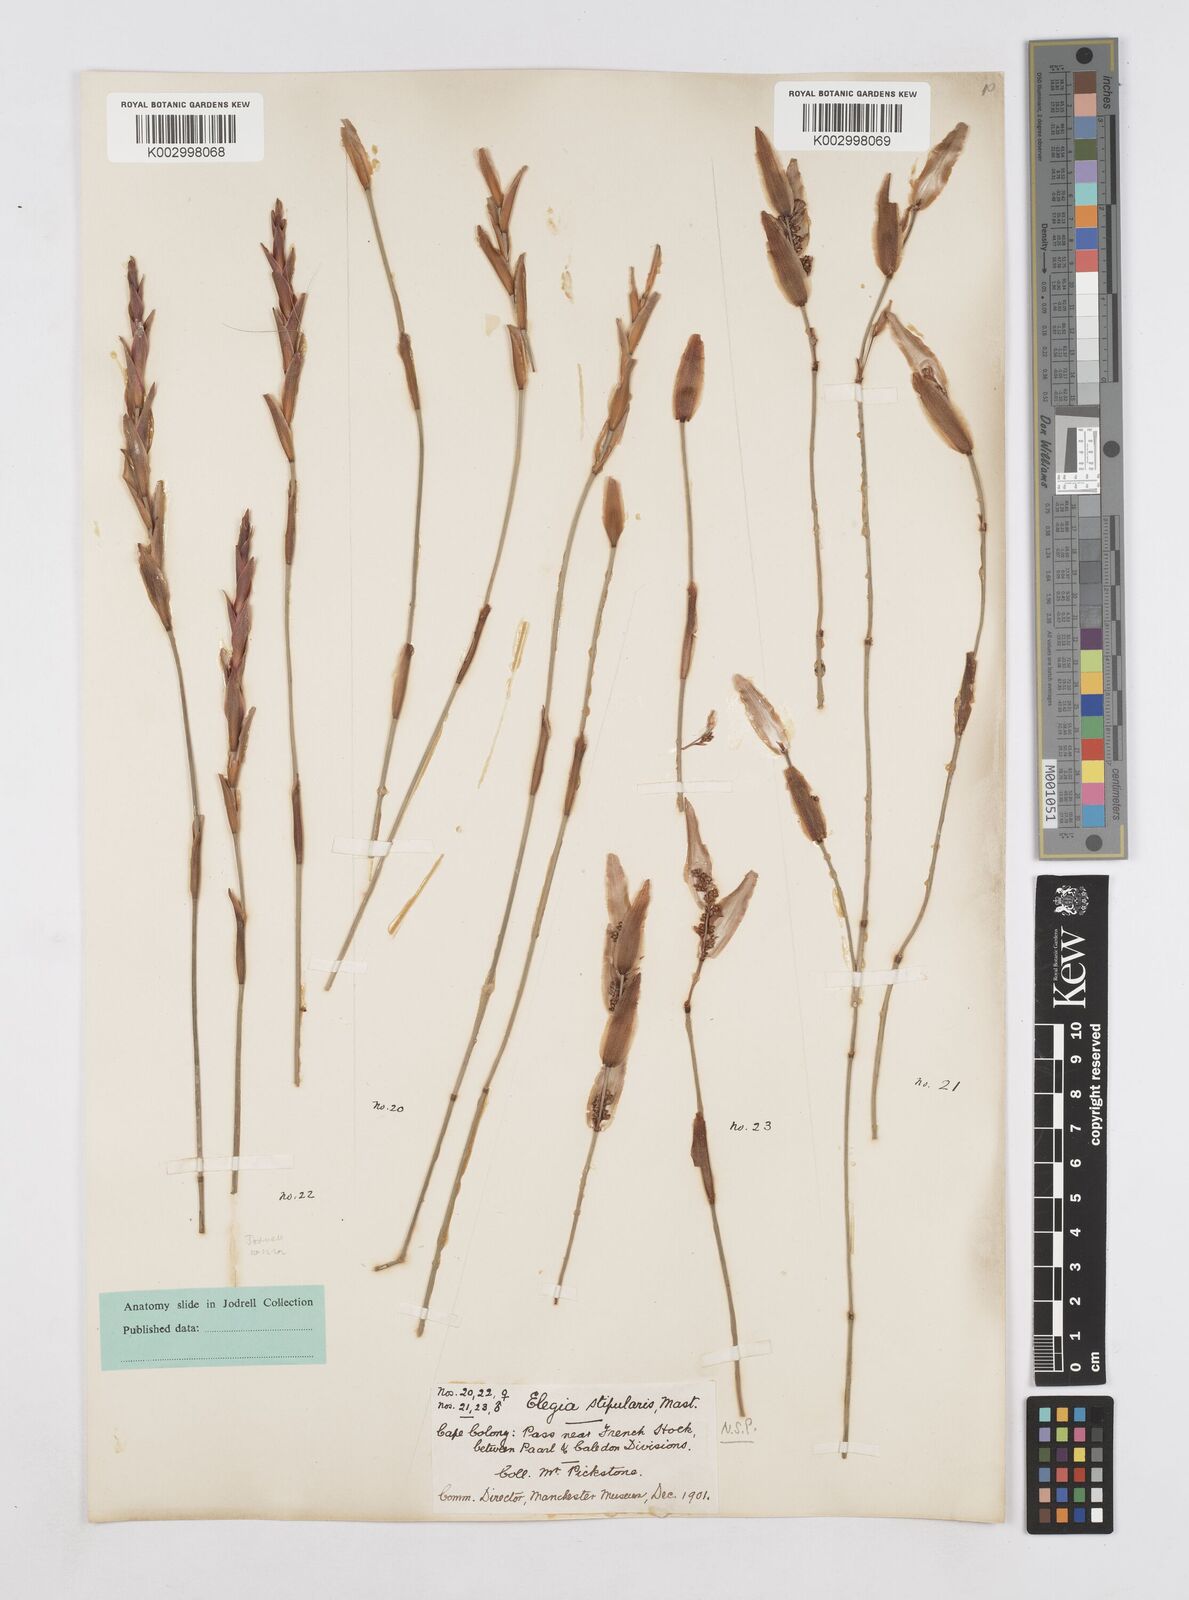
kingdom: Plantae
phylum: Tracheophyta
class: Liliopsida
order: Poales
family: Restionaceae
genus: Elegia
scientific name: Elegia
